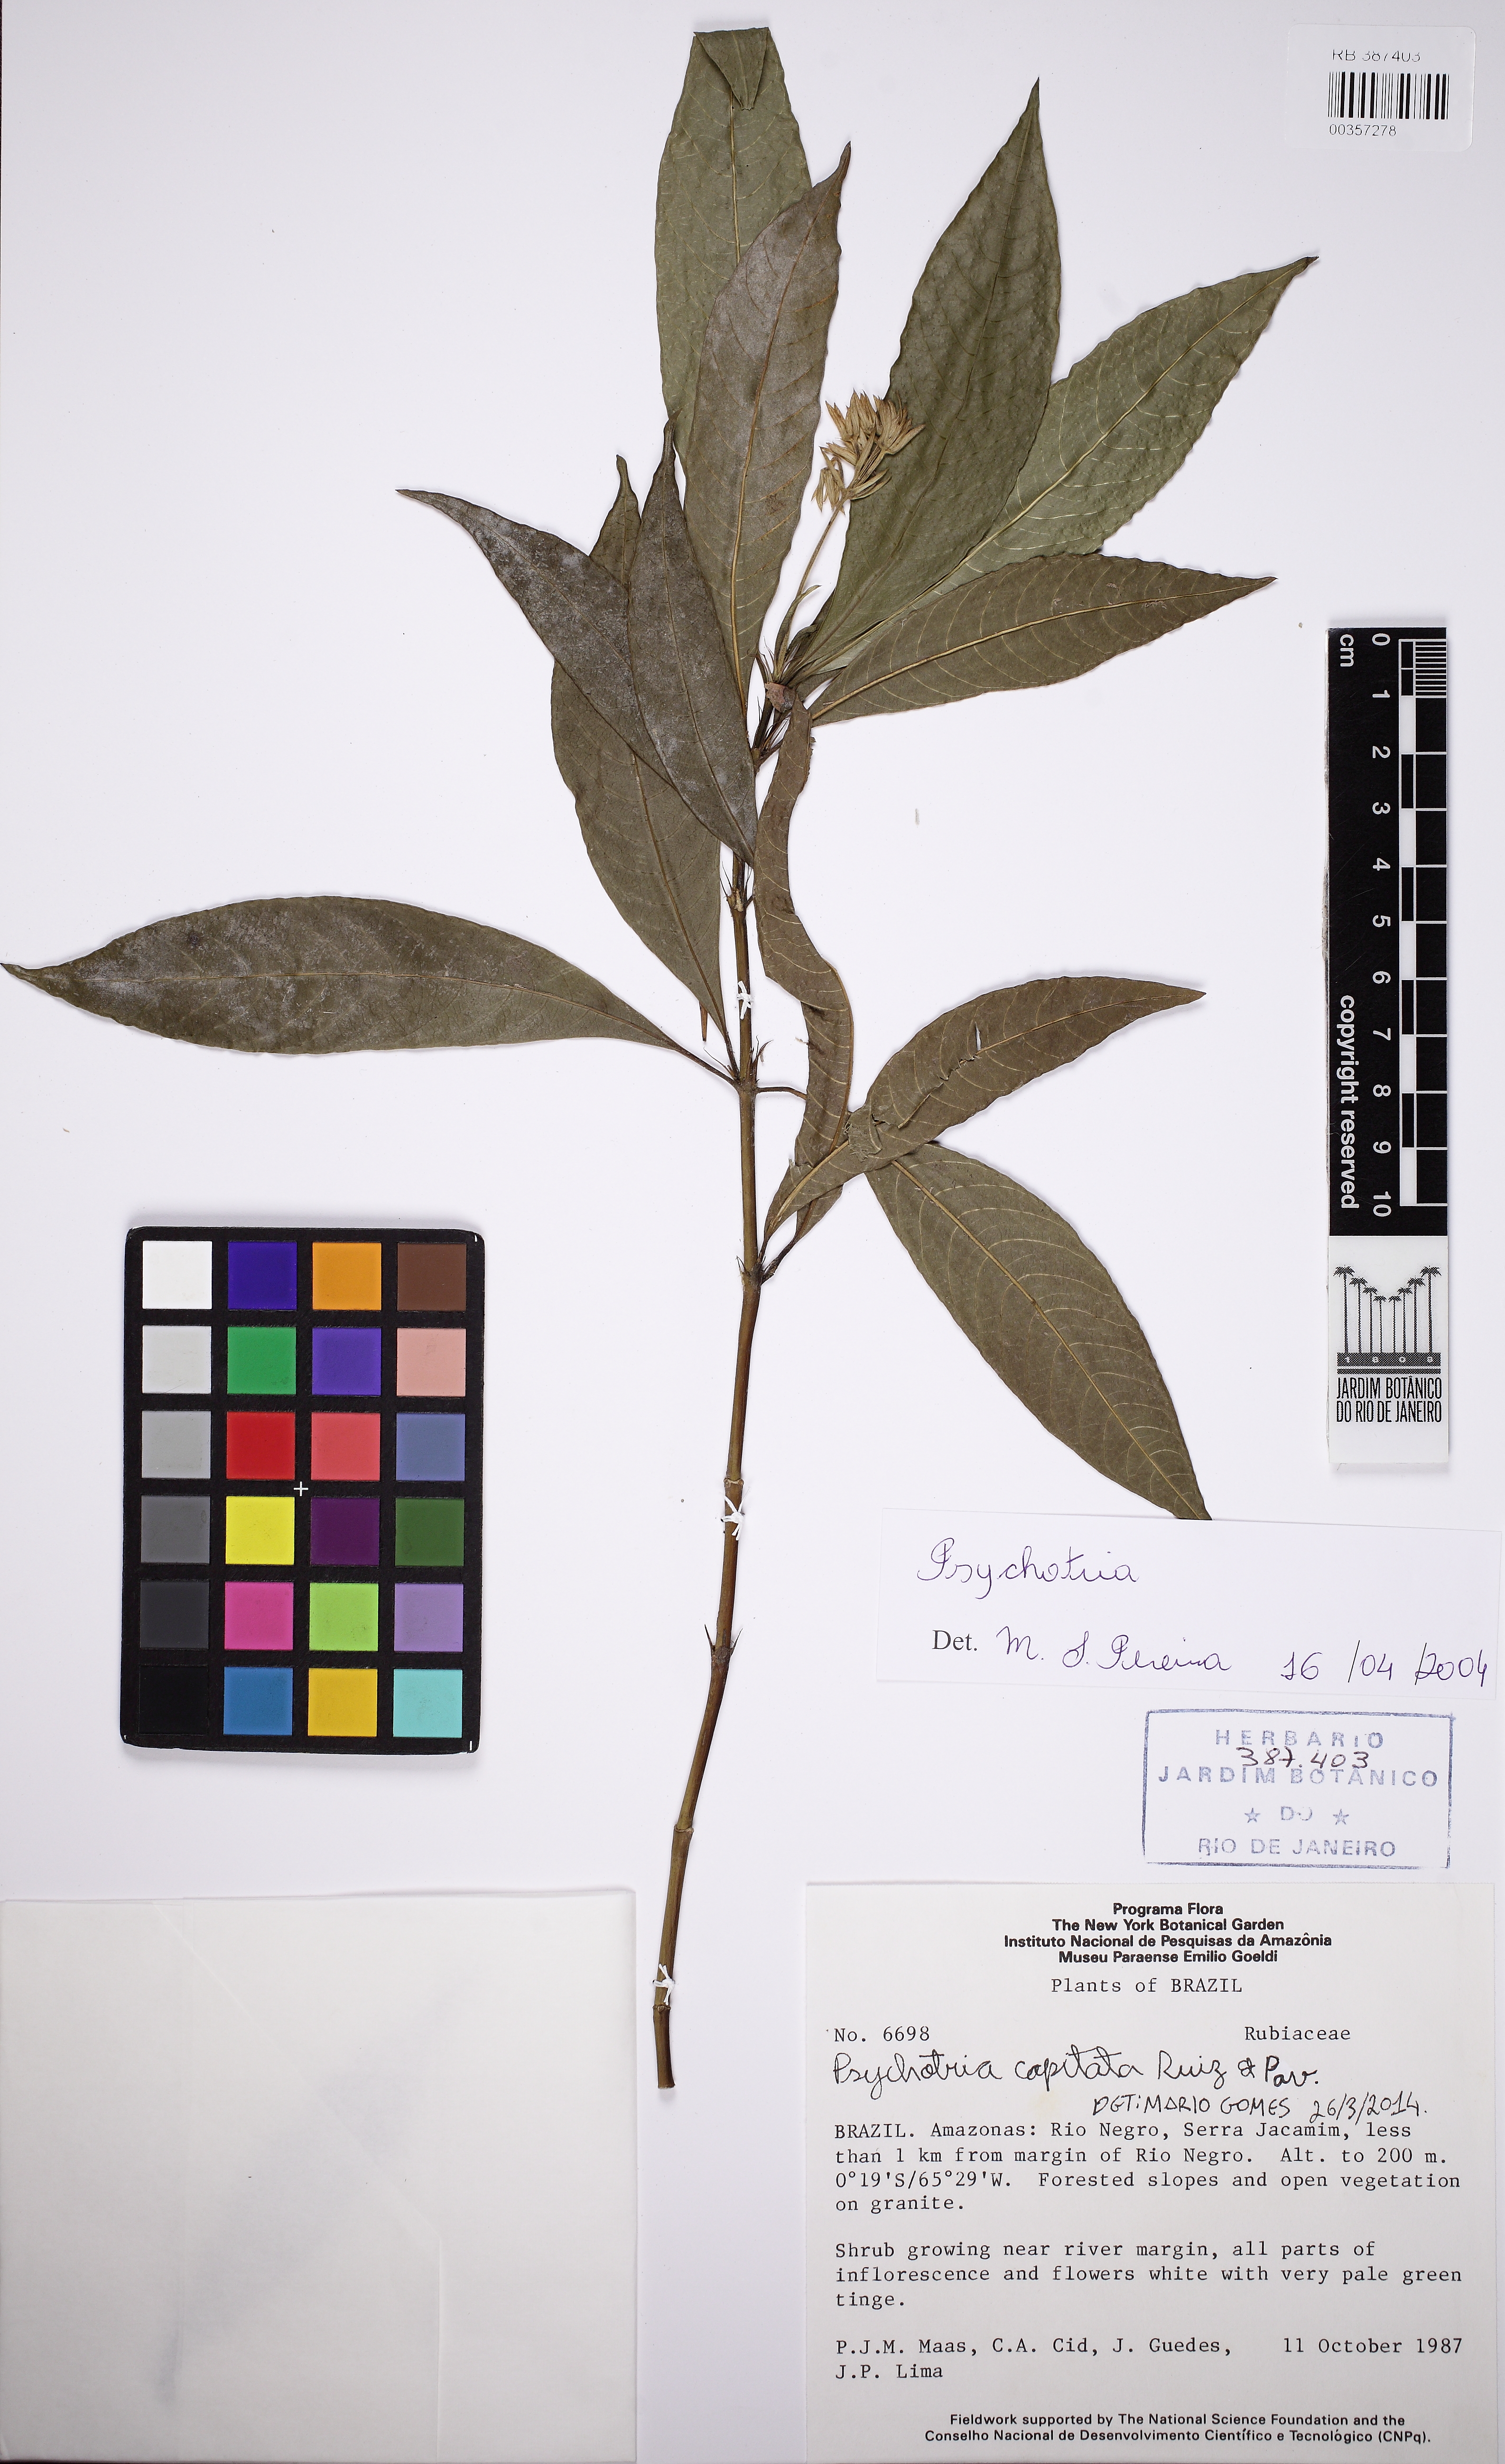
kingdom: Plantae
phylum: Tracheophyta
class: Magnoliopsida
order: Gentianales
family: Rubiaceae
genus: Palicourea
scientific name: Palicourea violacea
